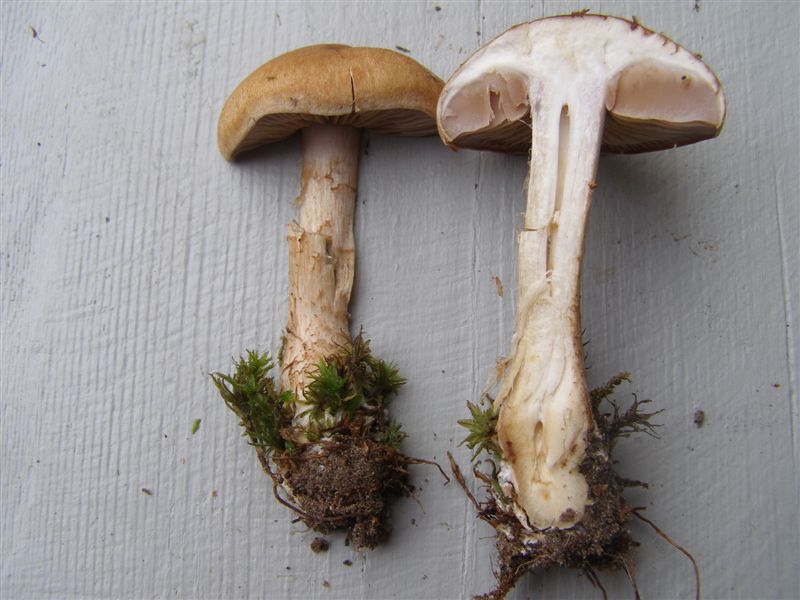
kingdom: Fungi
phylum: Basidiomycota
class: Agaricomycetes
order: Agaricales
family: Cortinariaceae
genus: Cortinarius
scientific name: Cortinarius caninus
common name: gran-slørhat
